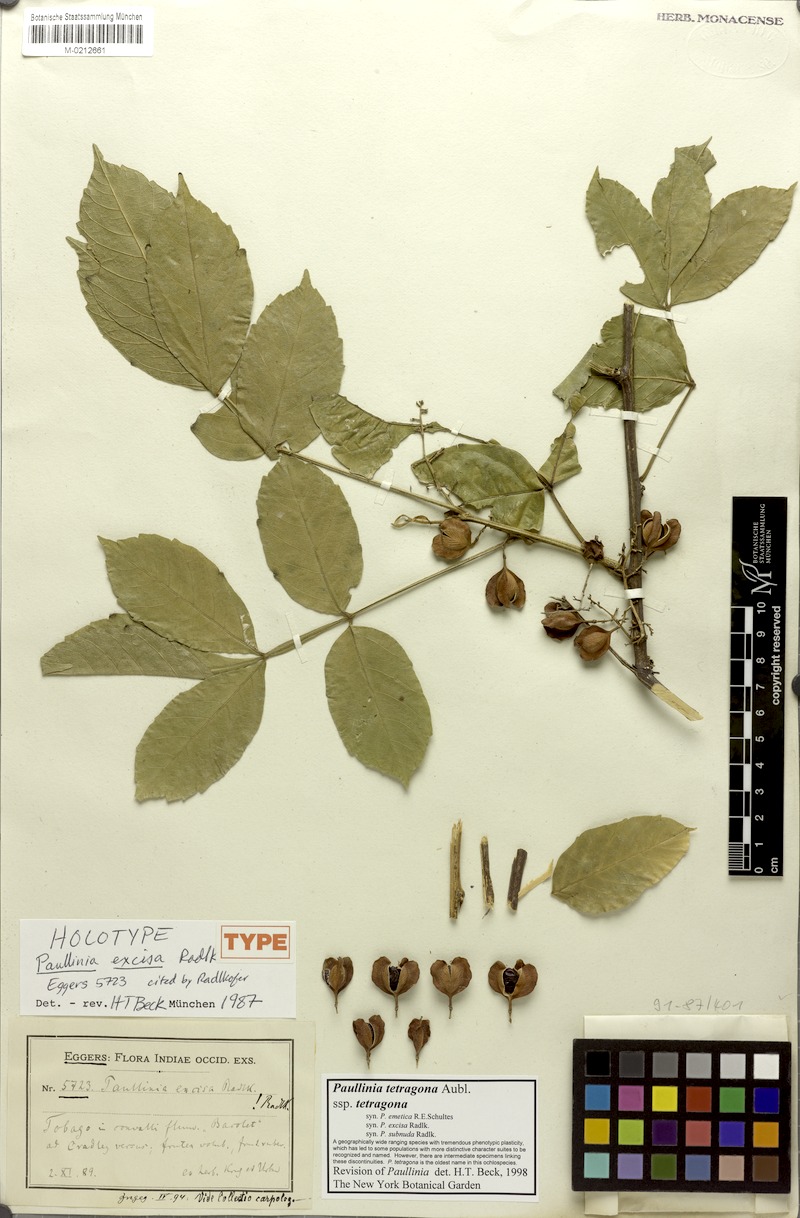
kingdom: Plantae
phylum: Tracheophyta
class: Magnoliopsida
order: Sapindales
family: Sapindaceae
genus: Paullinia
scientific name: Paullinia tetragona
